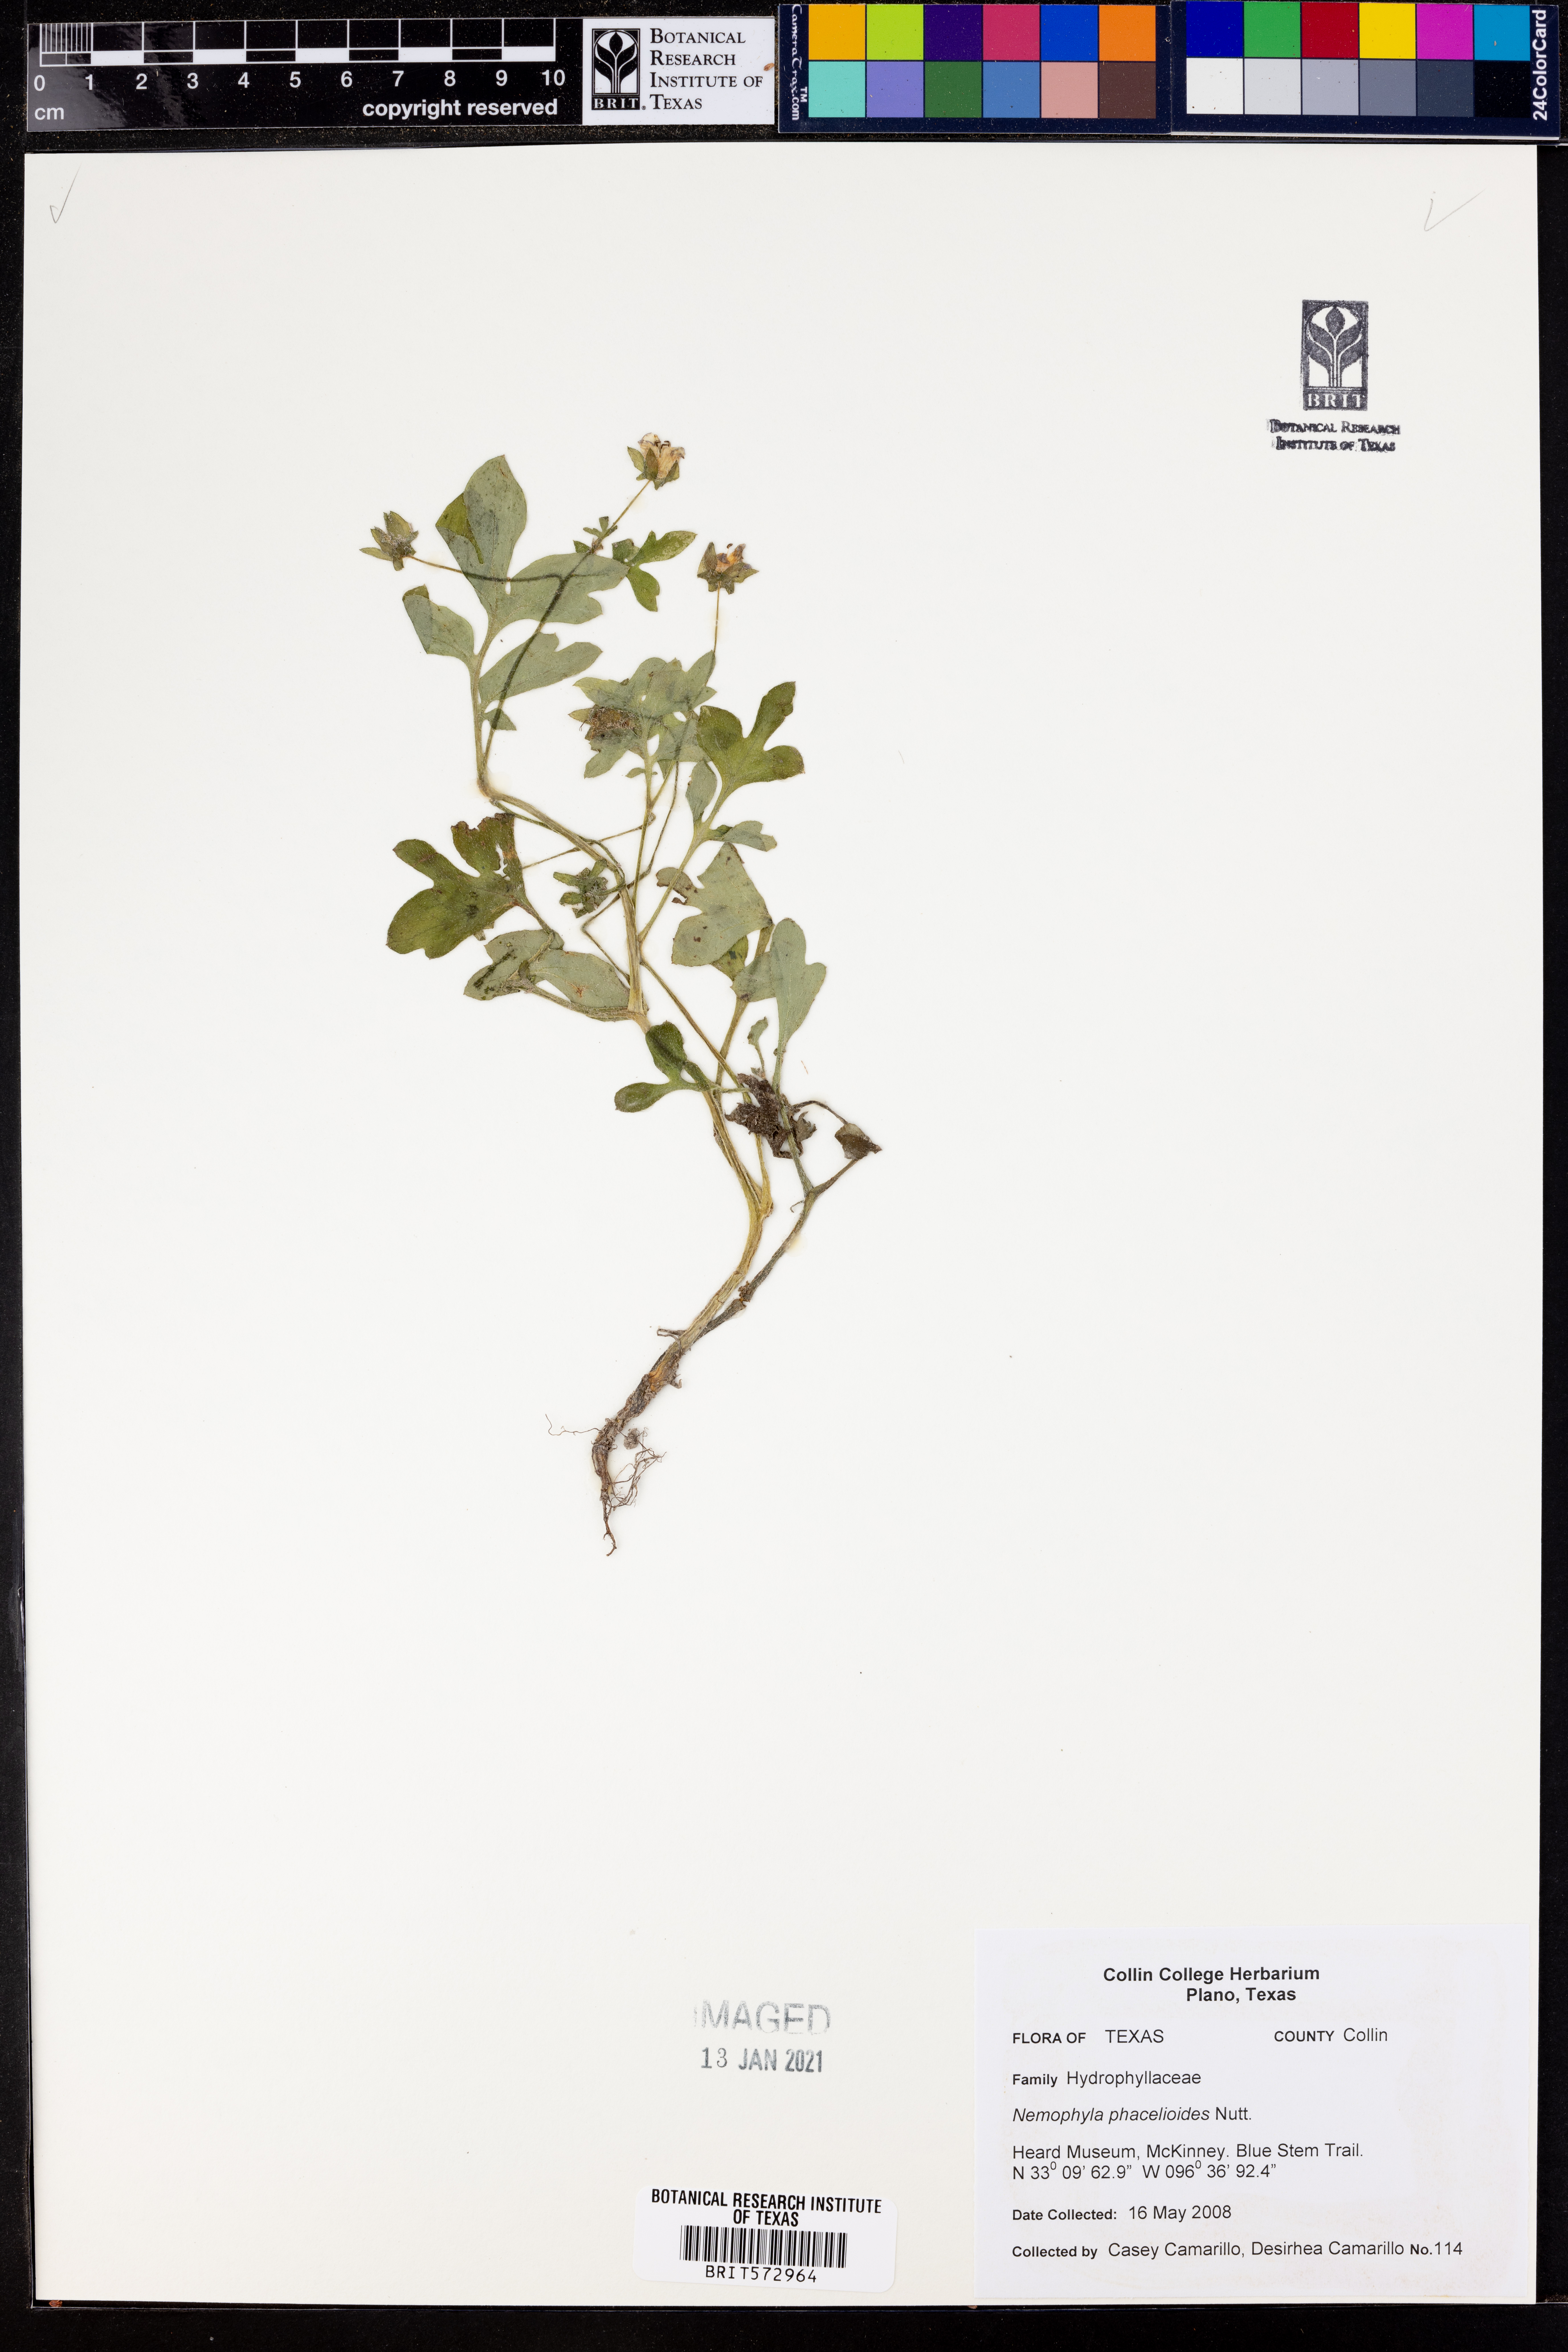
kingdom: Plantae
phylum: Tracheophyta
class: Magnoliopsida
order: Boraginales
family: Hydrophyllaceae
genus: Nemophila
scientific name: Nemophila phacelioides
